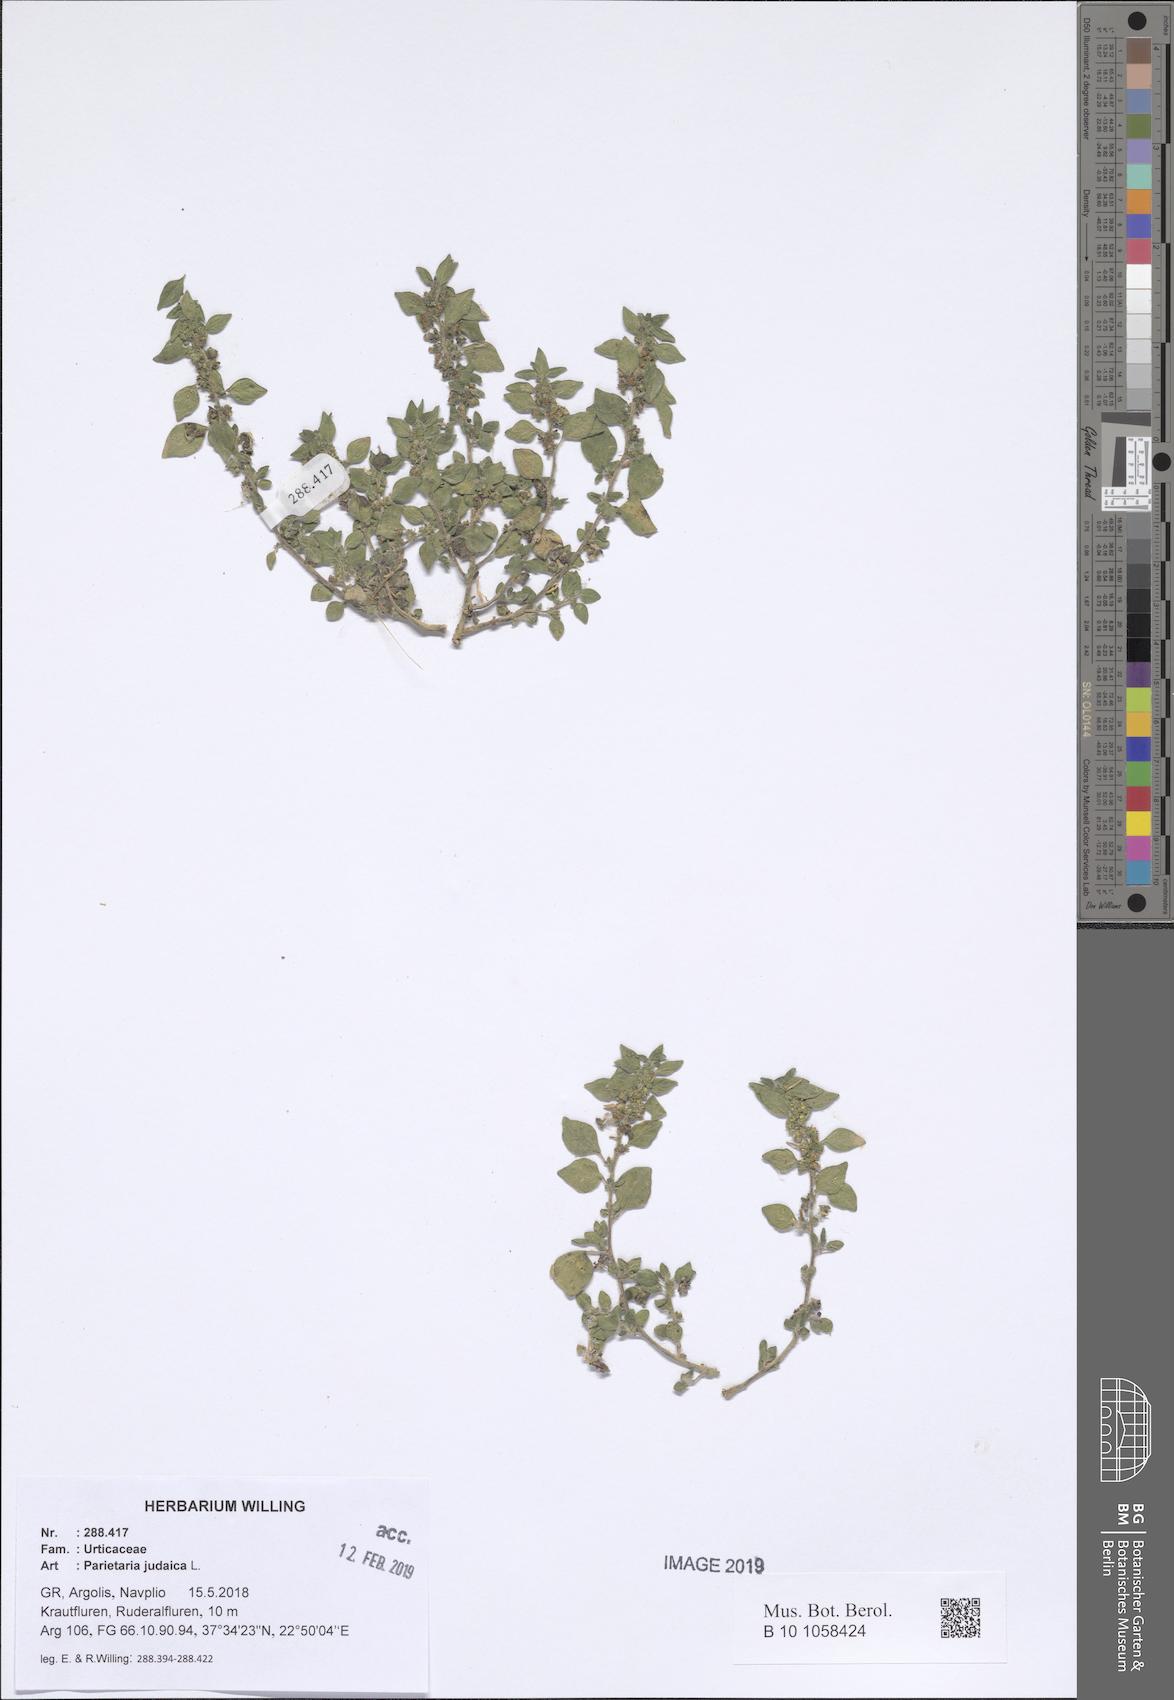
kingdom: Plantae
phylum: Tracheophyta
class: Magnoliopsida
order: Rosales
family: Urticaceae
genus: Parietaria
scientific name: Parietaria judaica
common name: Pellitory-of-the-wall
